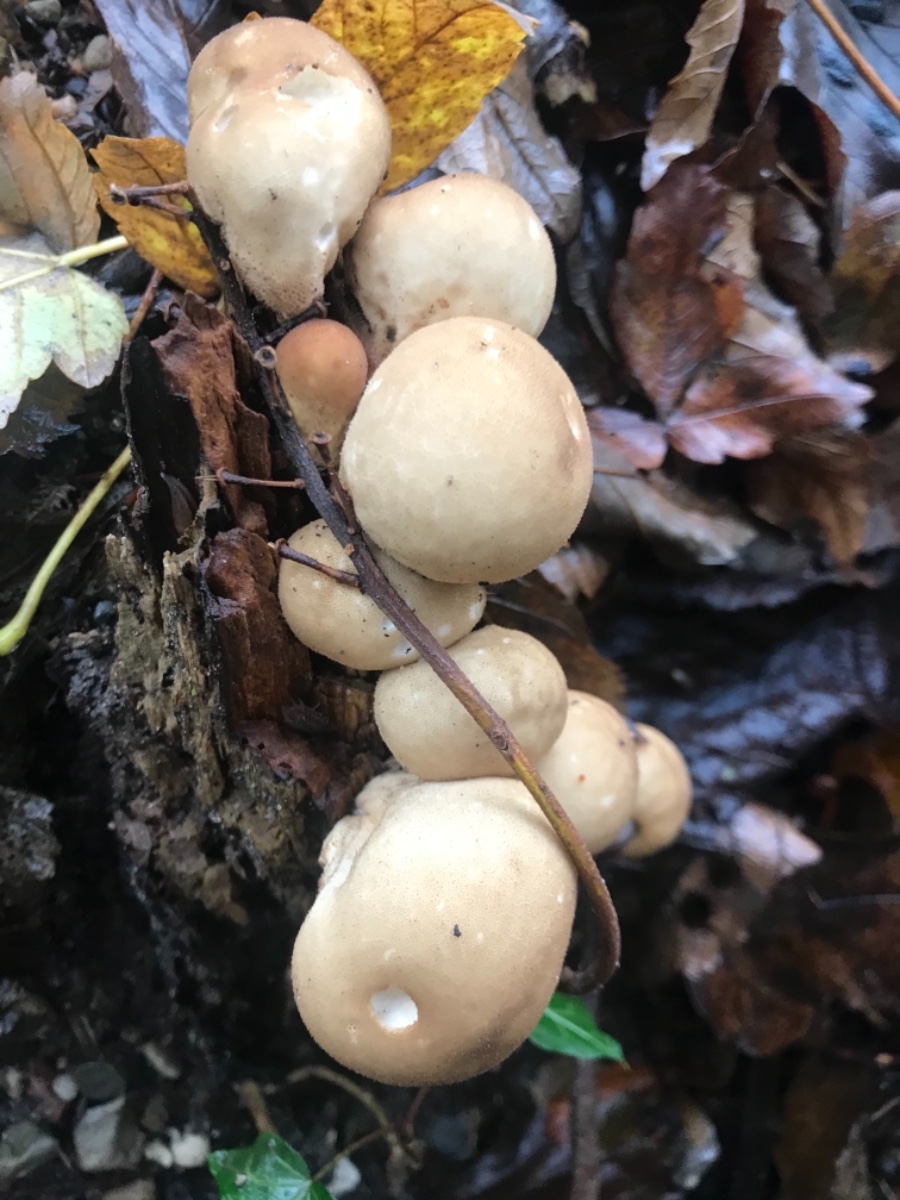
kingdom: Fungi
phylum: Basidiomycota
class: Agaricomycetes
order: Agaricales
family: Lycoperdaceae
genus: Apioperdon
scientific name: Apioperdon pyriforme
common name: pære-støvbold
